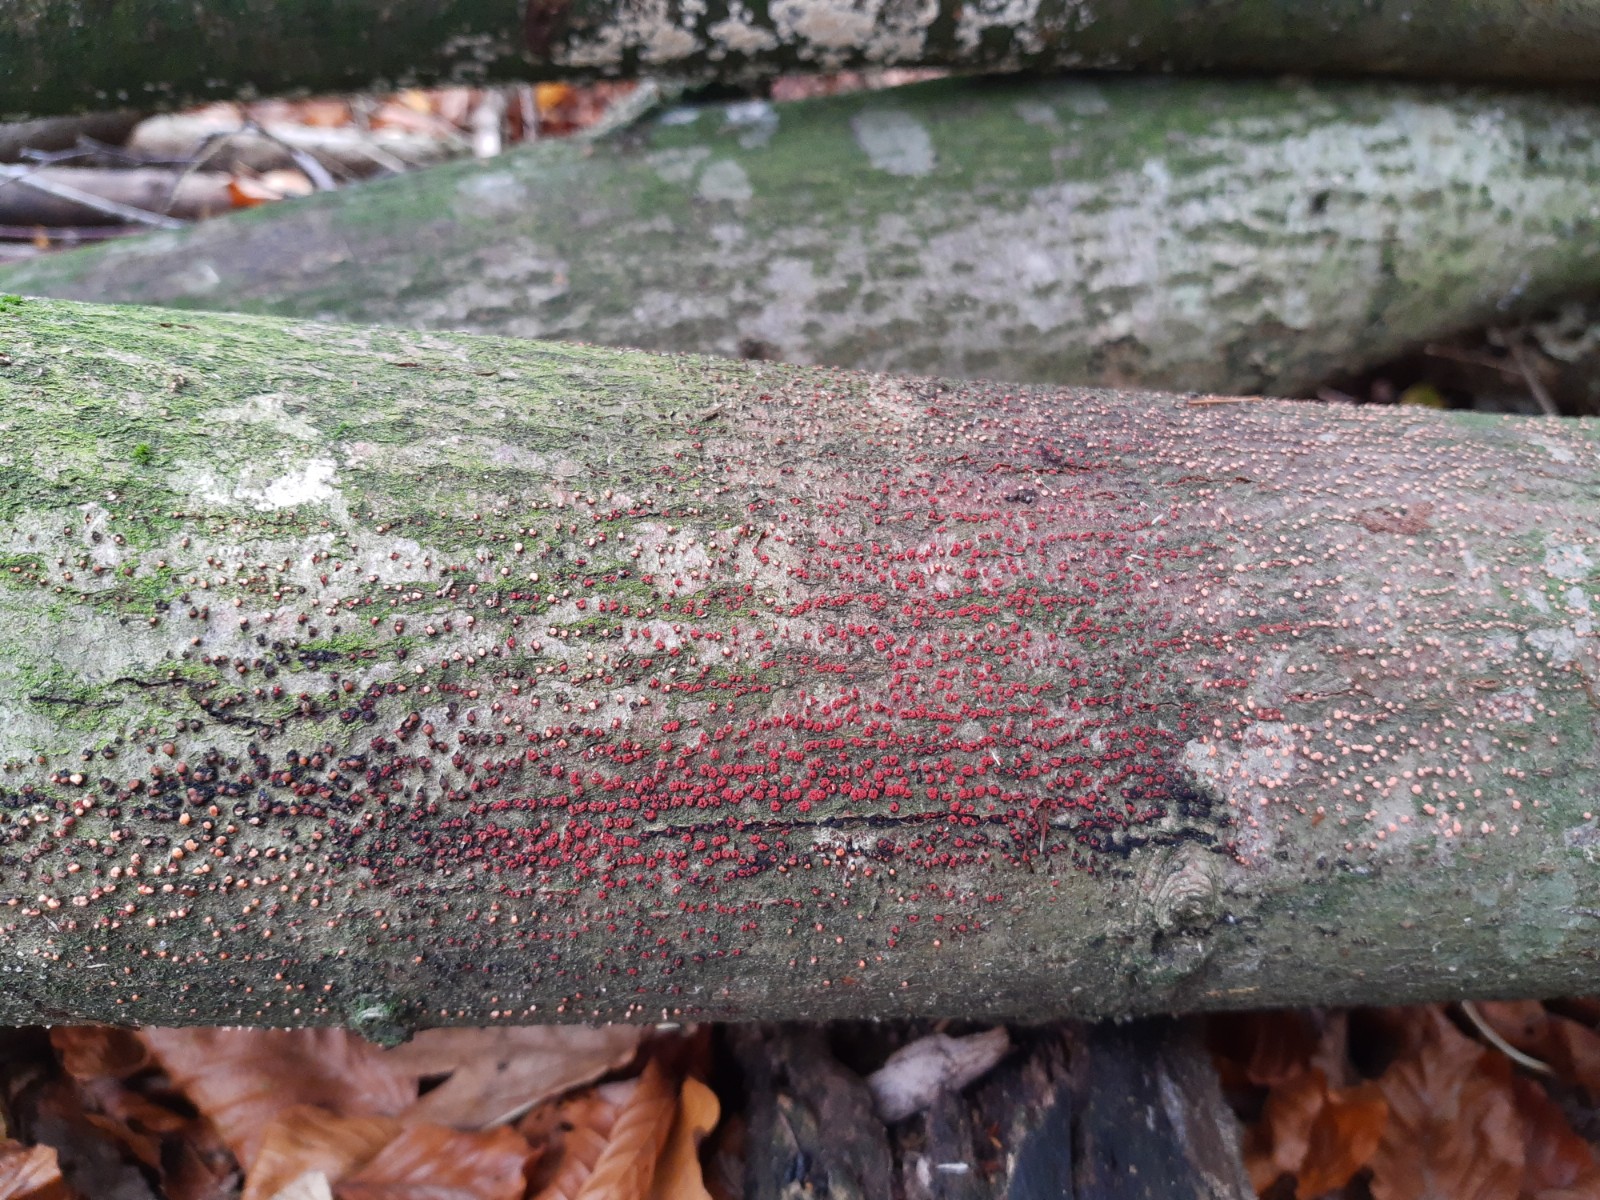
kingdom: Fungi
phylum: Ascomycota
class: Sordariomycetes
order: Hypocreales
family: Nectriaceae
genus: Nectria
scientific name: Nectria cinnabarina
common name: almindelig cinnobersvamp
